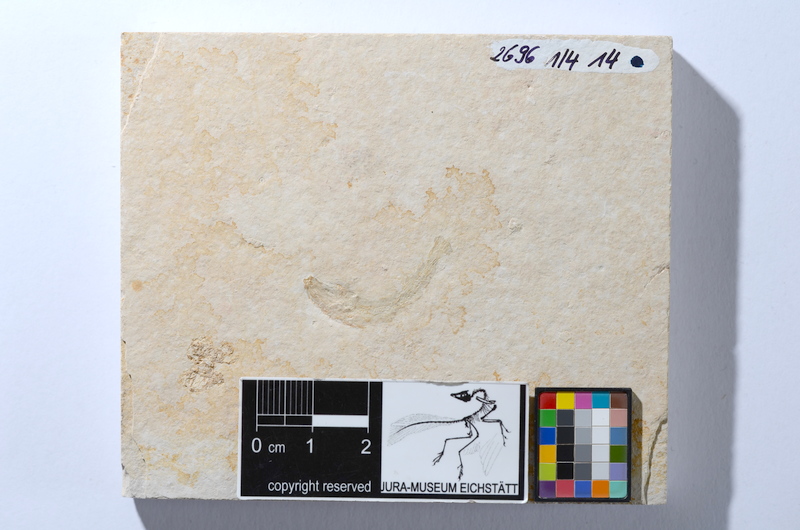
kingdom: Animalia
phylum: Chordata
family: Ascalaboidae
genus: Tharsis
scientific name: Tharsis dubius
